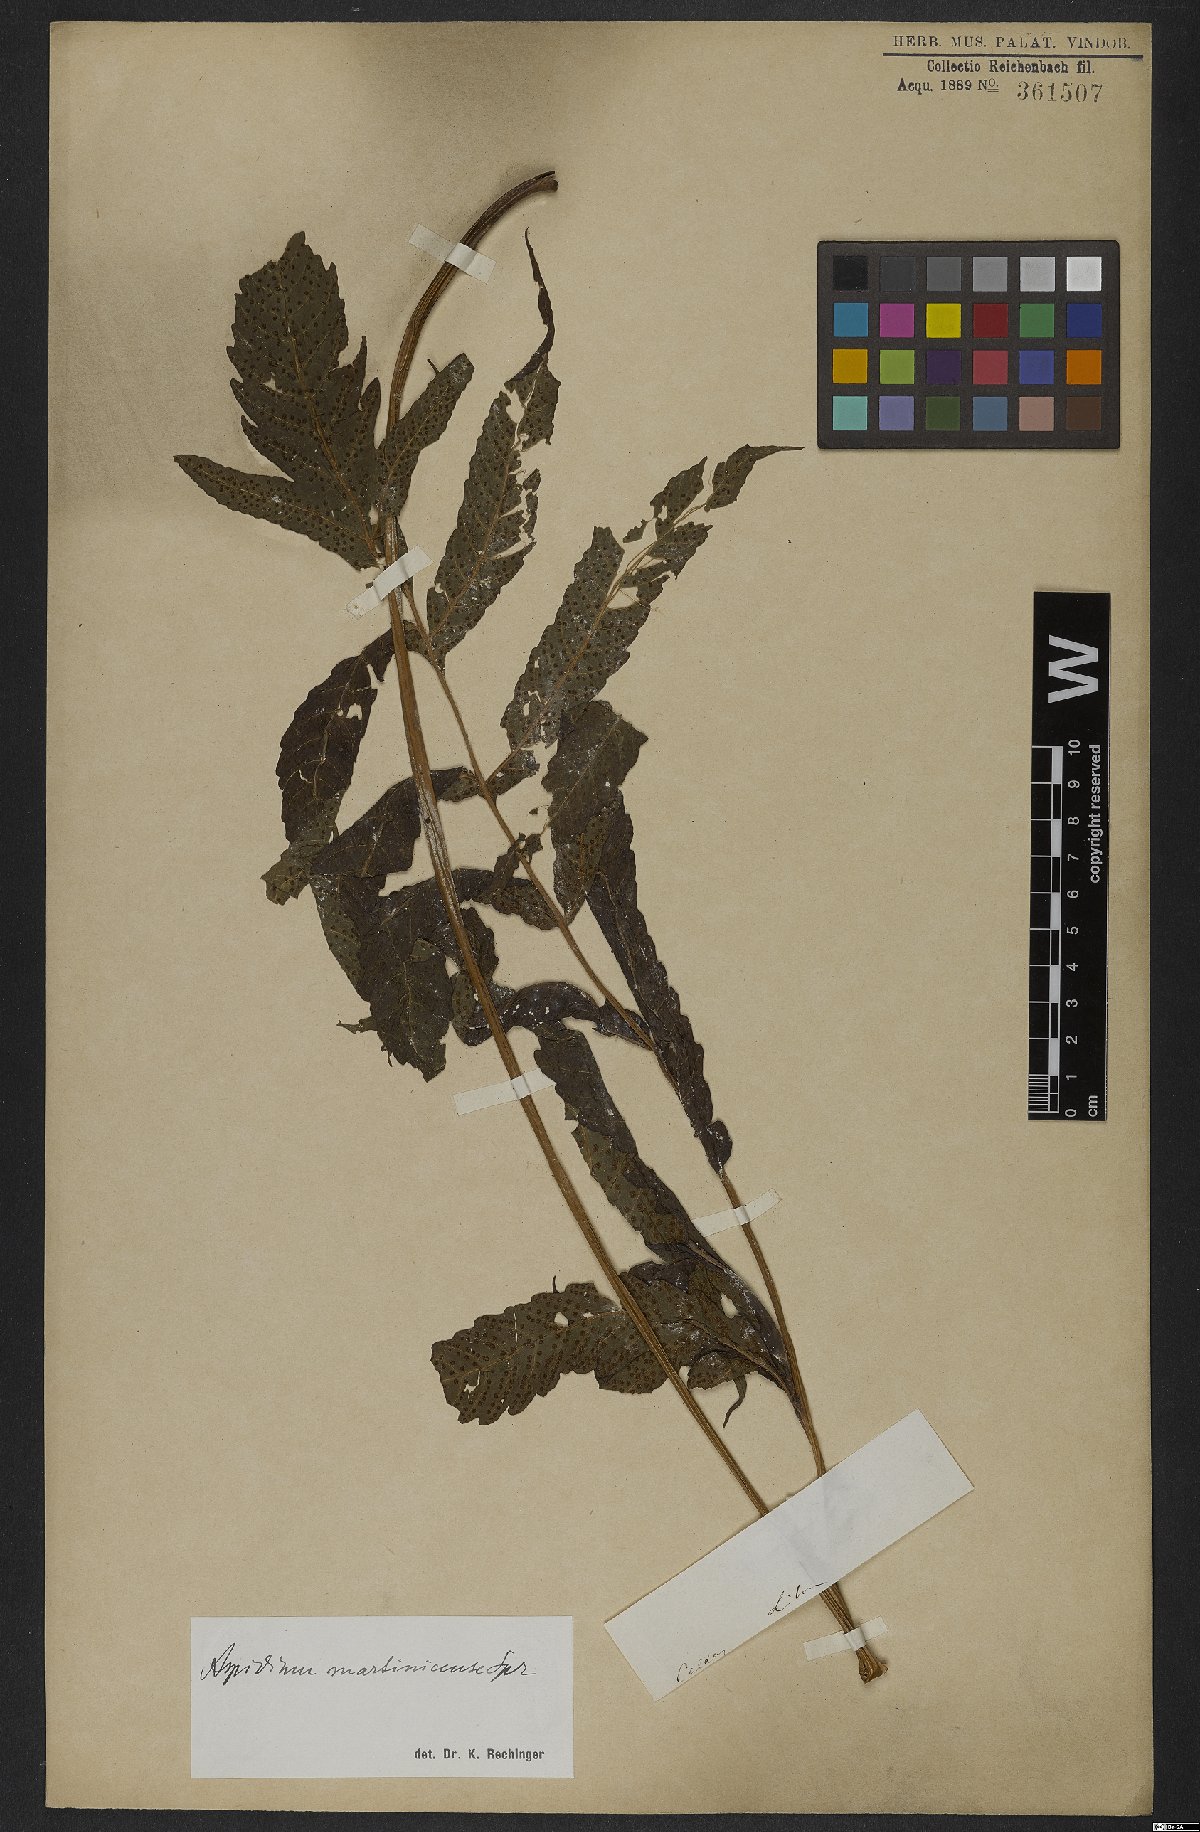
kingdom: Plantae
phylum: Tracheophyta
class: Polypodiopsida
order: Polypodiales
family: Tectariaceae
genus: Tectaria
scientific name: Tectaria incisa
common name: Incised halberd fern
